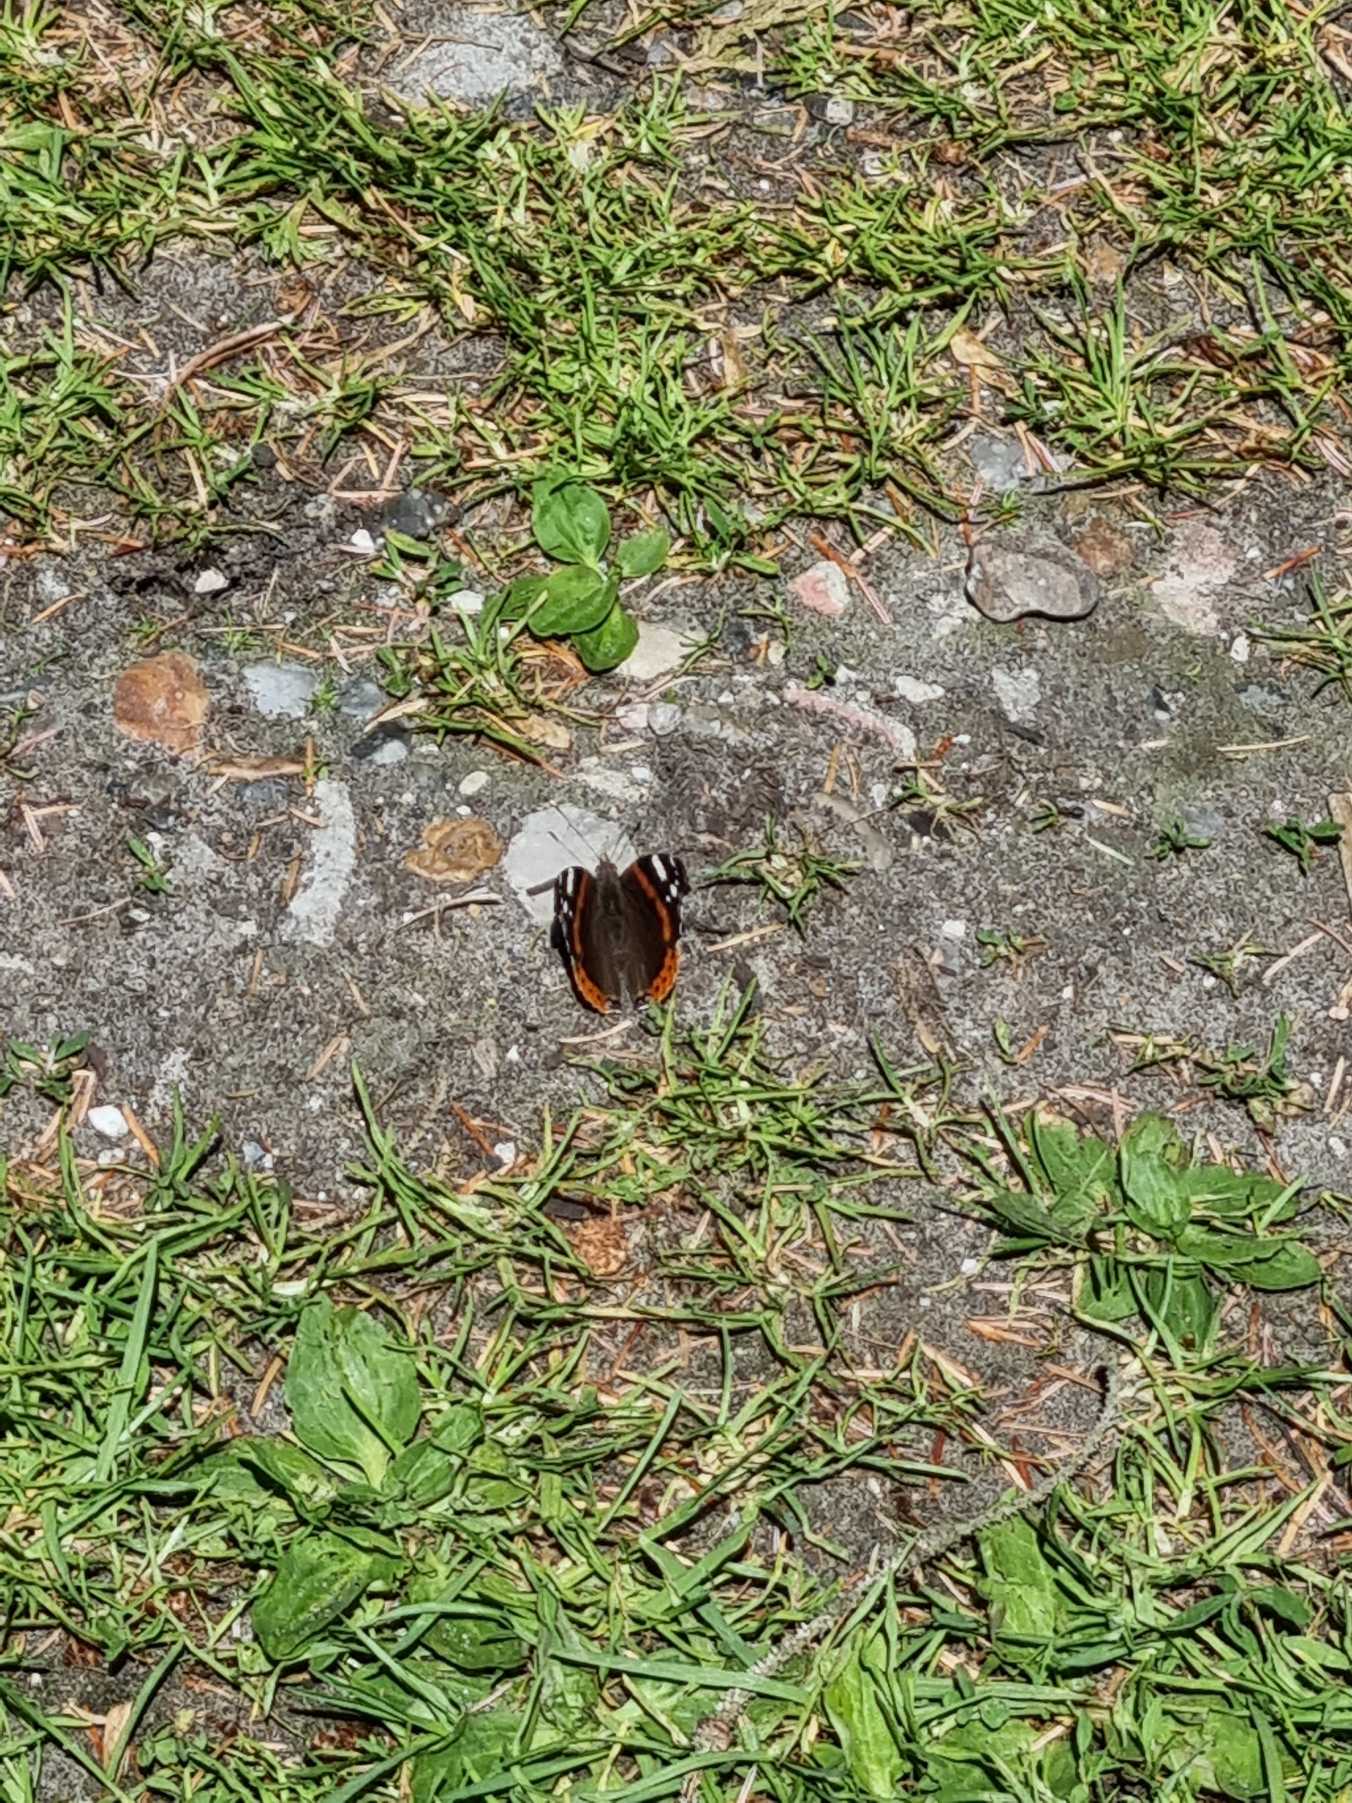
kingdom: Animalia
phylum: Arthropoda
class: Insecta
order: Lepidoptera
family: Nymphalidae
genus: Vanessa
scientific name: Vanessa atalanta
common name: Admiral
